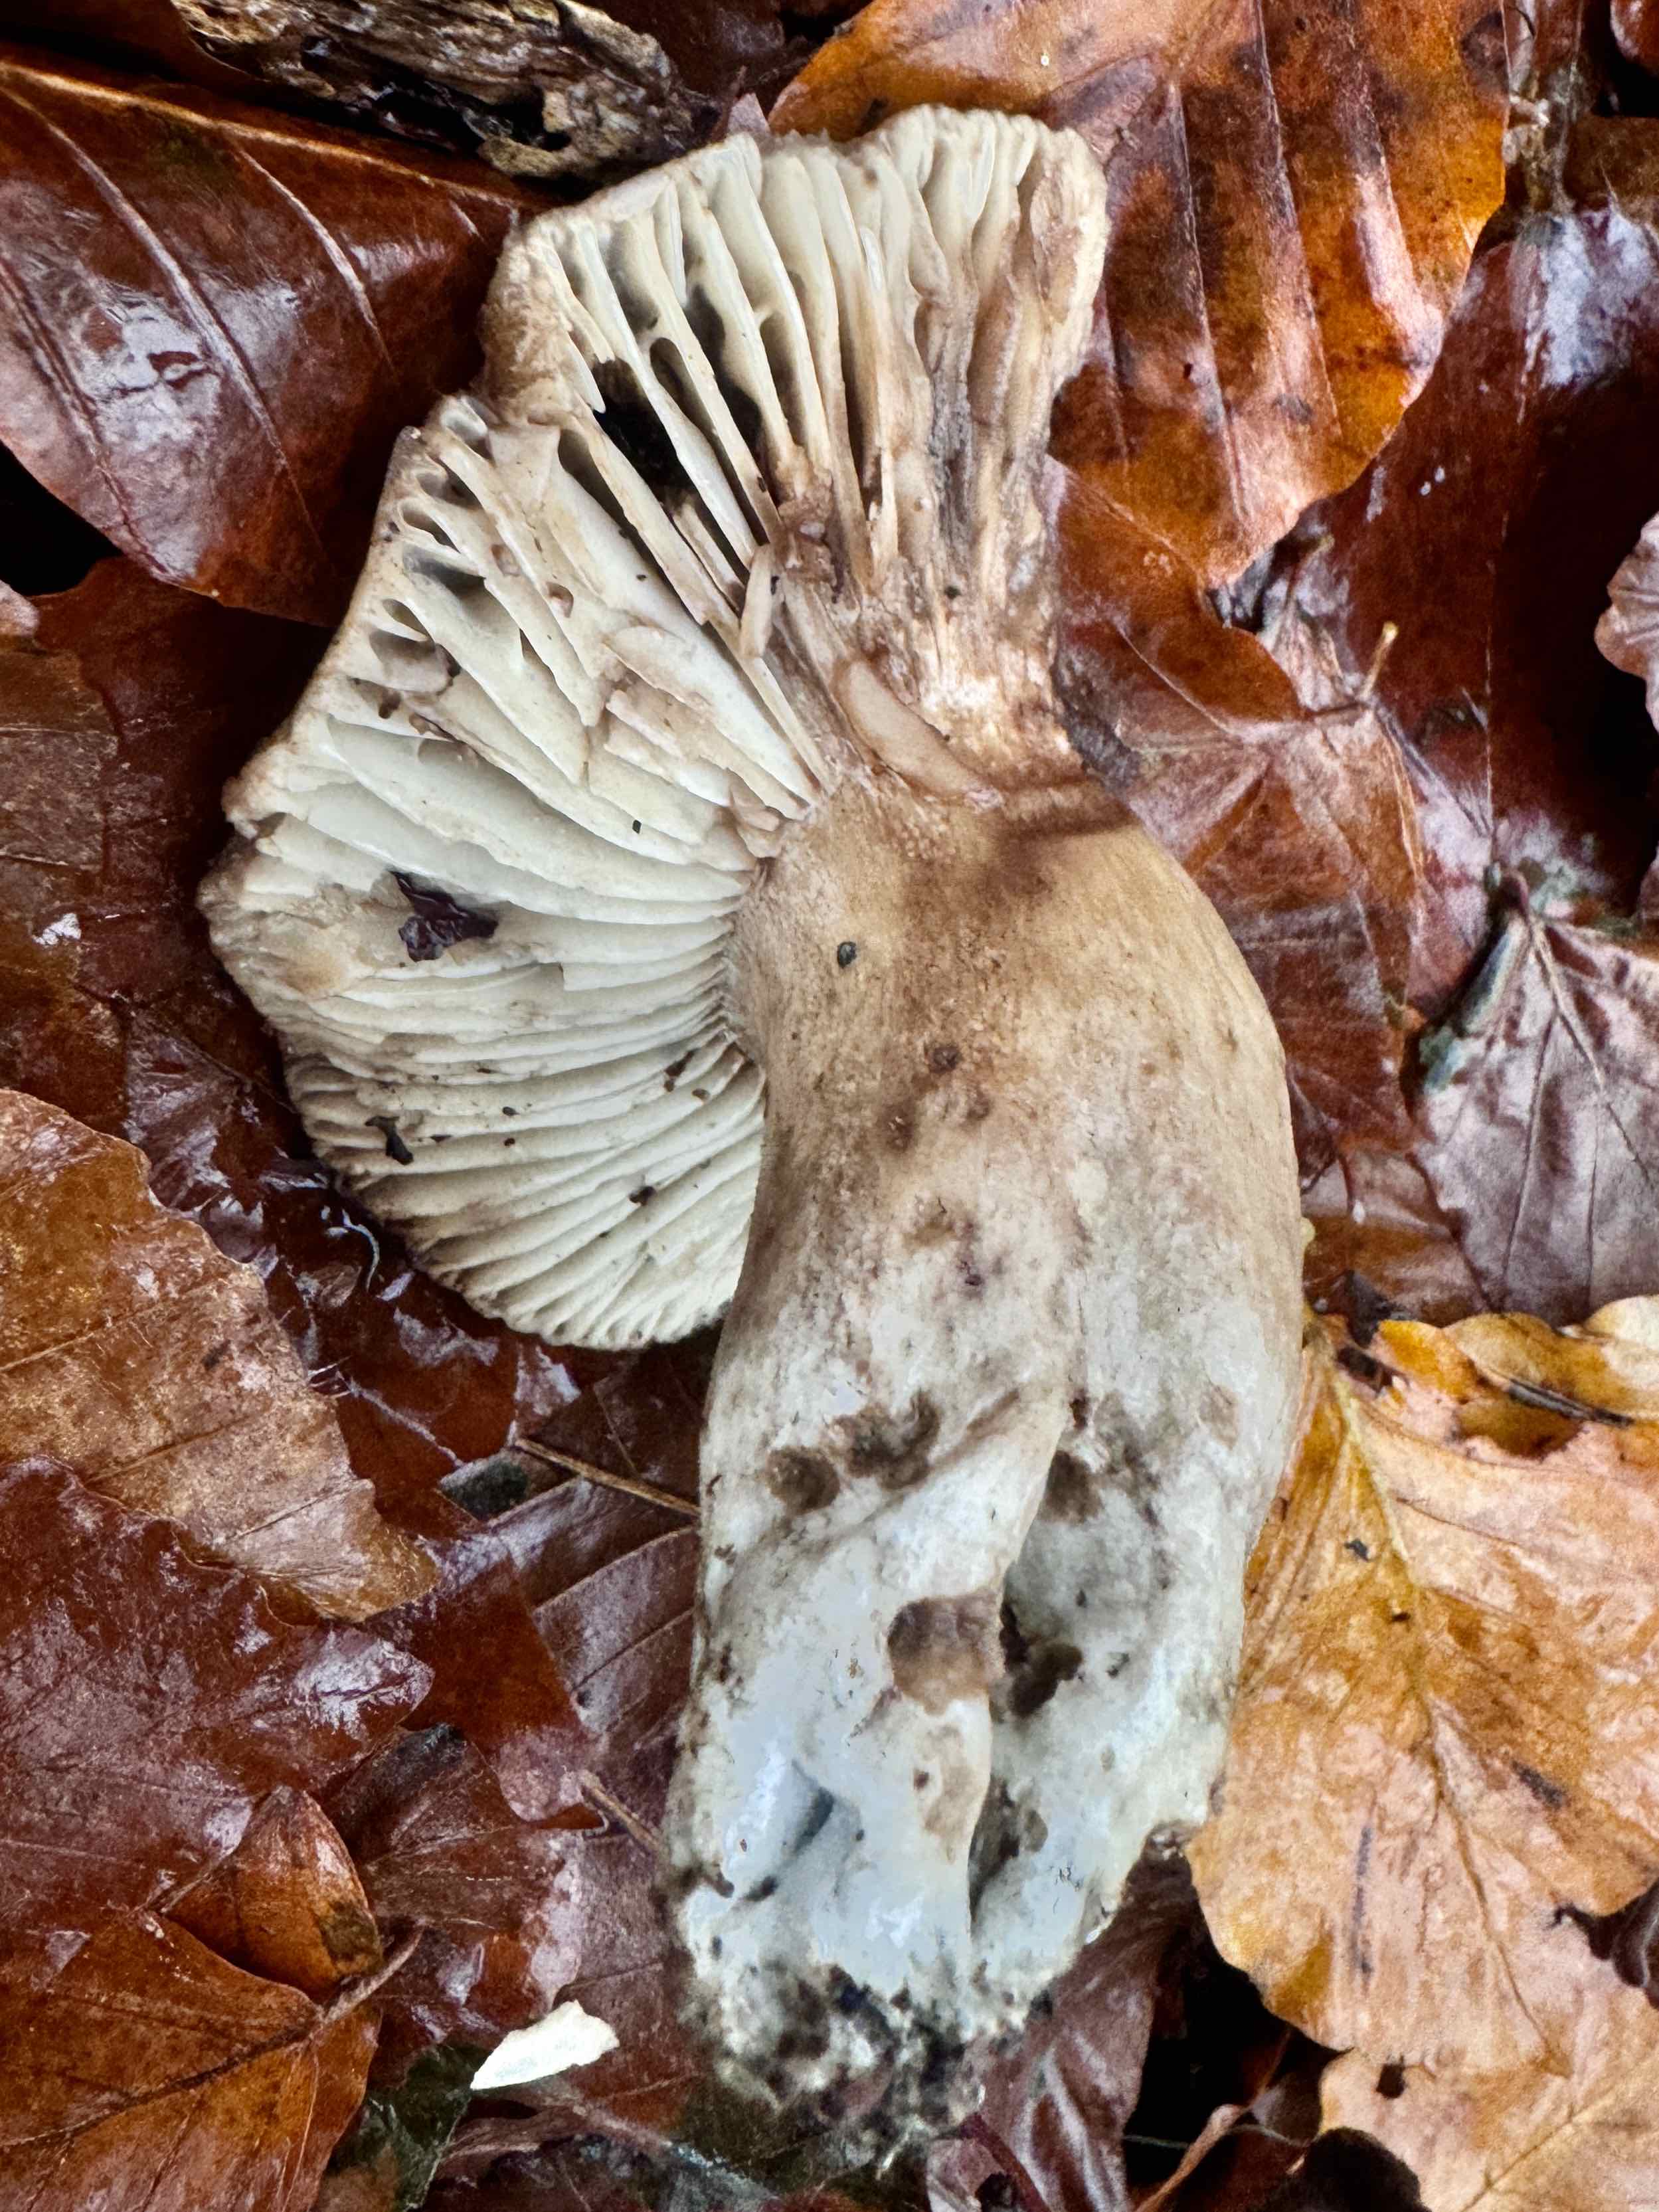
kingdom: Fungi
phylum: Basidiomycota
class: Agaricomycetes
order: Russulales
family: Russulaceae
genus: Russula
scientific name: Russula adusta
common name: sværtende skørhat
